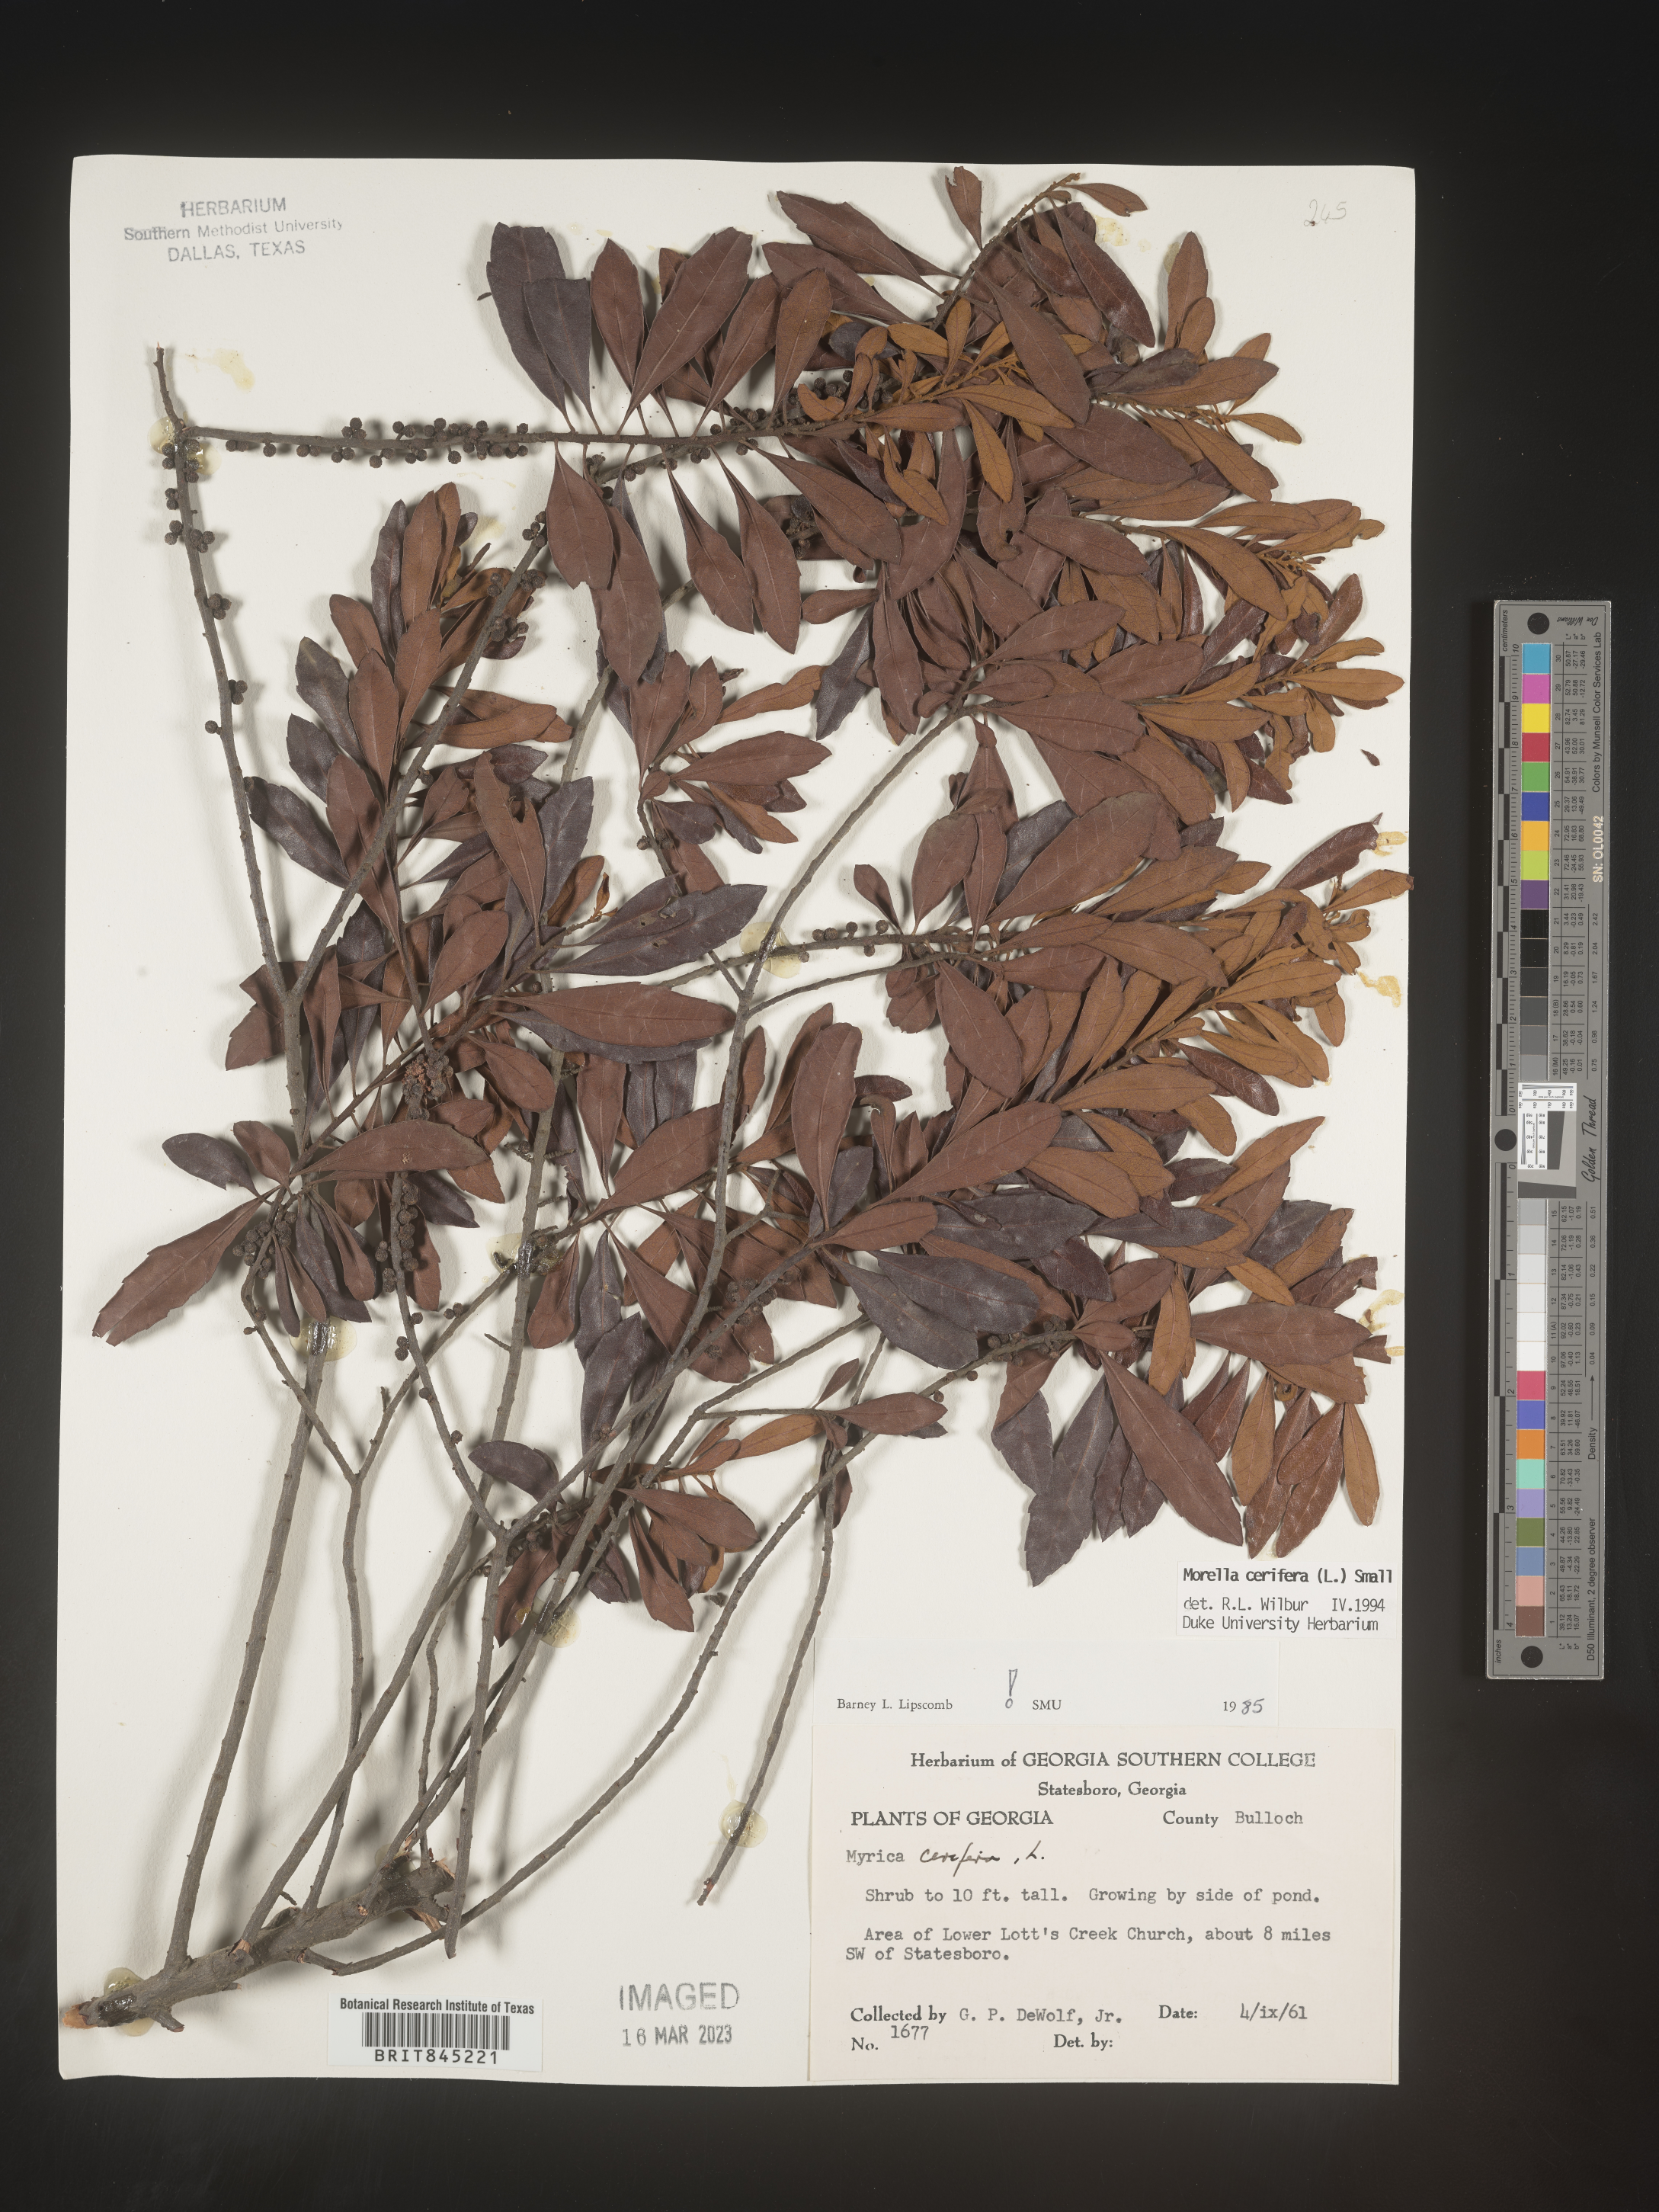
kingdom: Plantae
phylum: Tracheophyta
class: Magnoliopsida
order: Fagales
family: Myricaceae
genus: Morella
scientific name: Morella cerifera
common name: Wax myrtle
